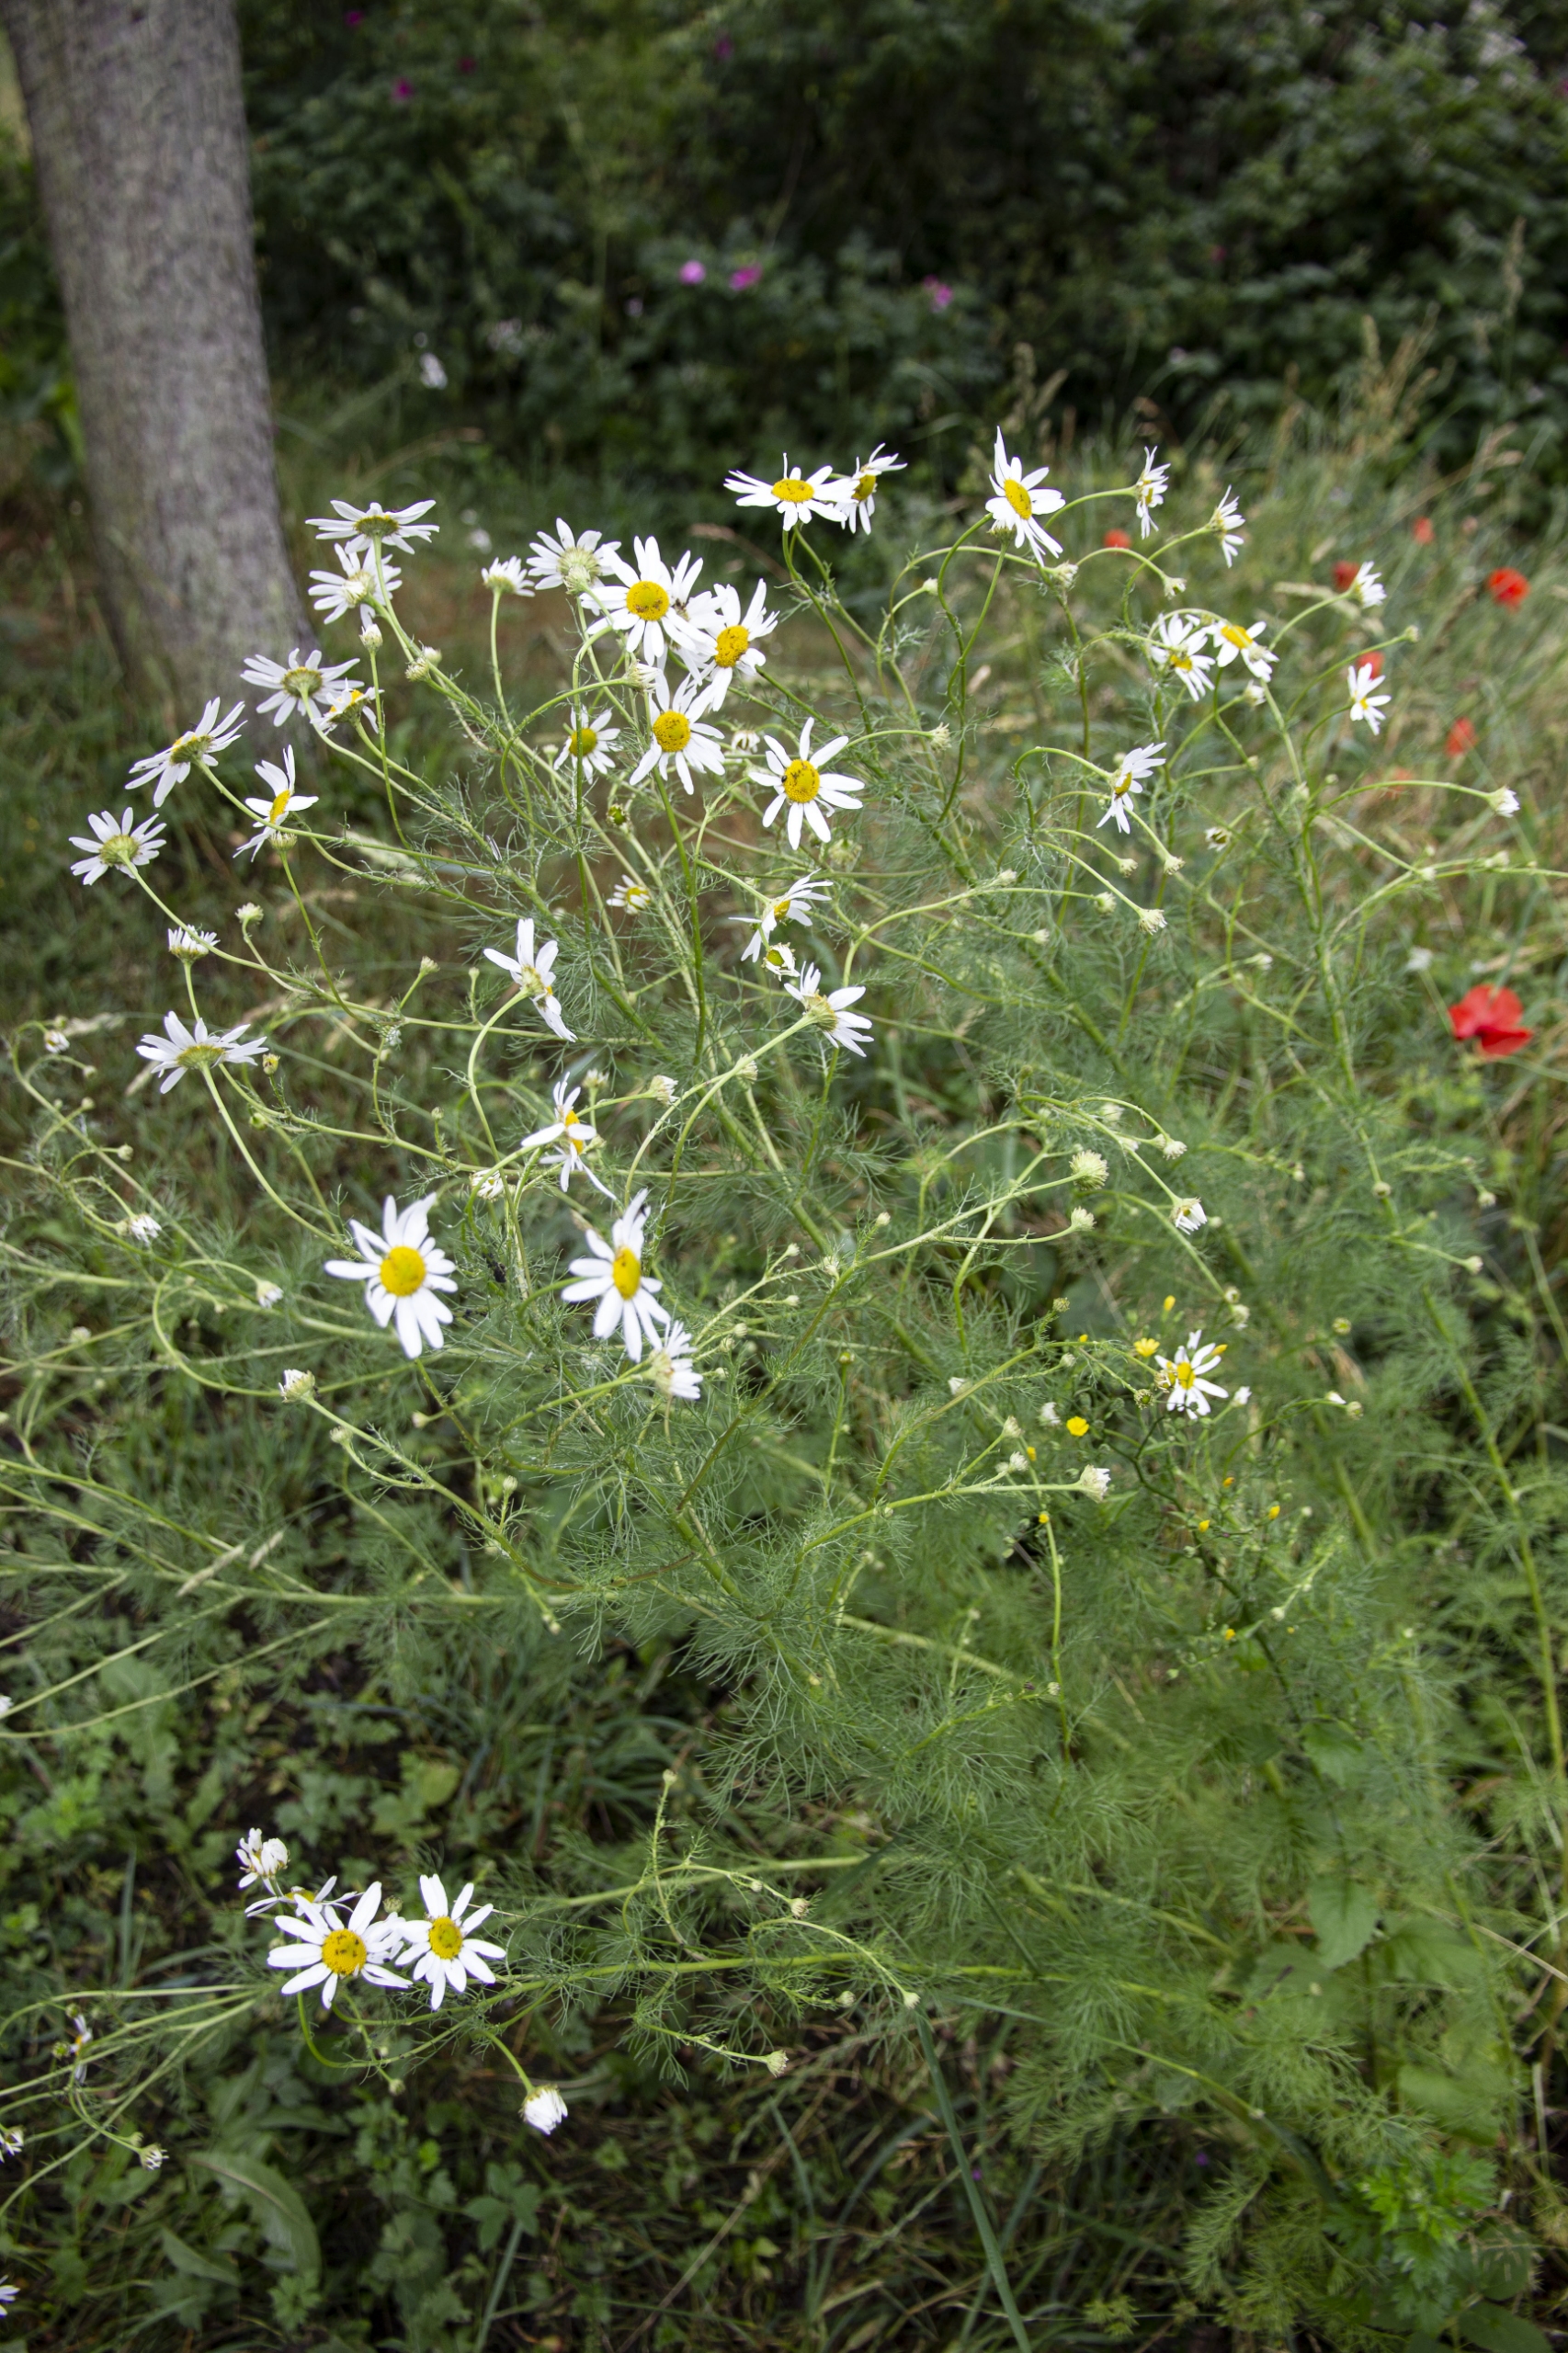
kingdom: Plantae
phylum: Tracheophyta
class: Magnoliopsida
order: Asterales
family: Asteraceae
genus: Tripleurospermum
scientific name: Tripleurospermum inodorum
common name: Lugtløs kamille
